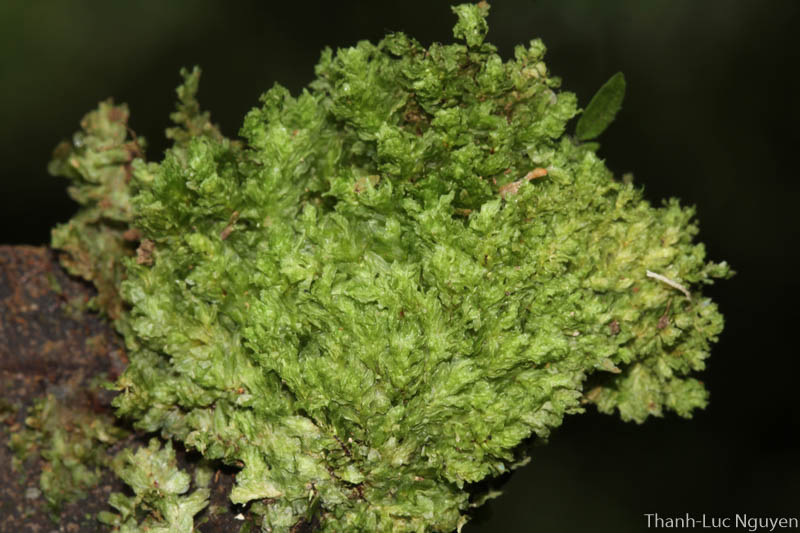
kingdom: Plantae
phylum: Bryophyta
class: Bryopsida
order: Hookeriales
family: Daltoniaceae
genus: Distichophyllum
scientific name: Distichophyllum
